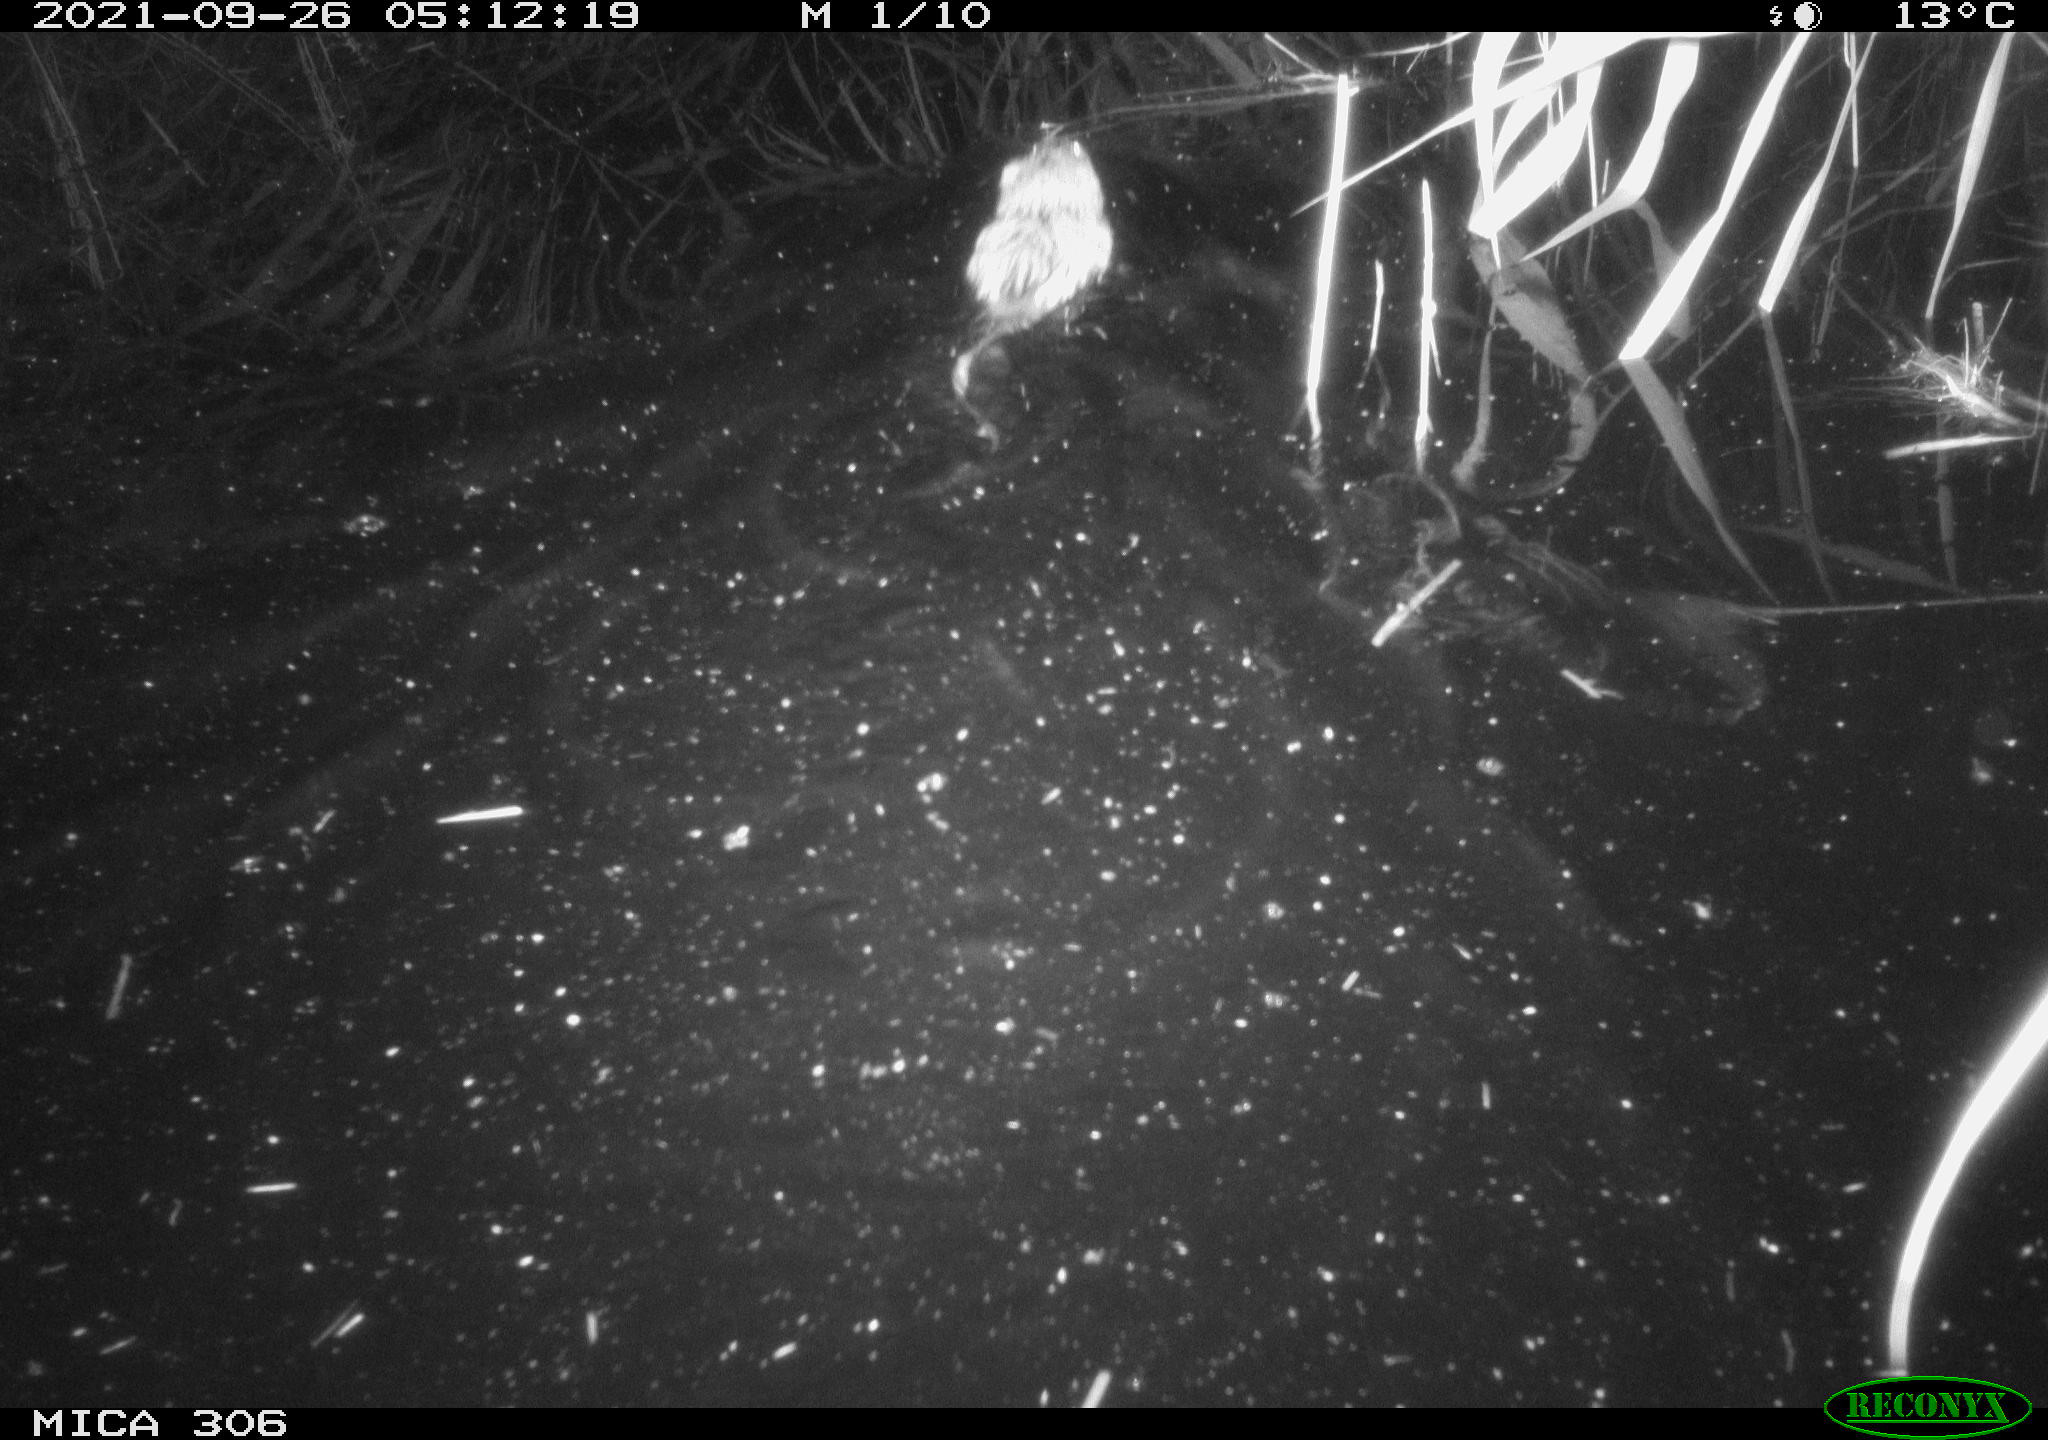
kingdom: Animalia
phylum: Chordata
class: Mammalia
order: Rodentia
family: Cricetidae
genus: Ondatra
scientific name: Ondatra zibethicus
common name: Muskrat
